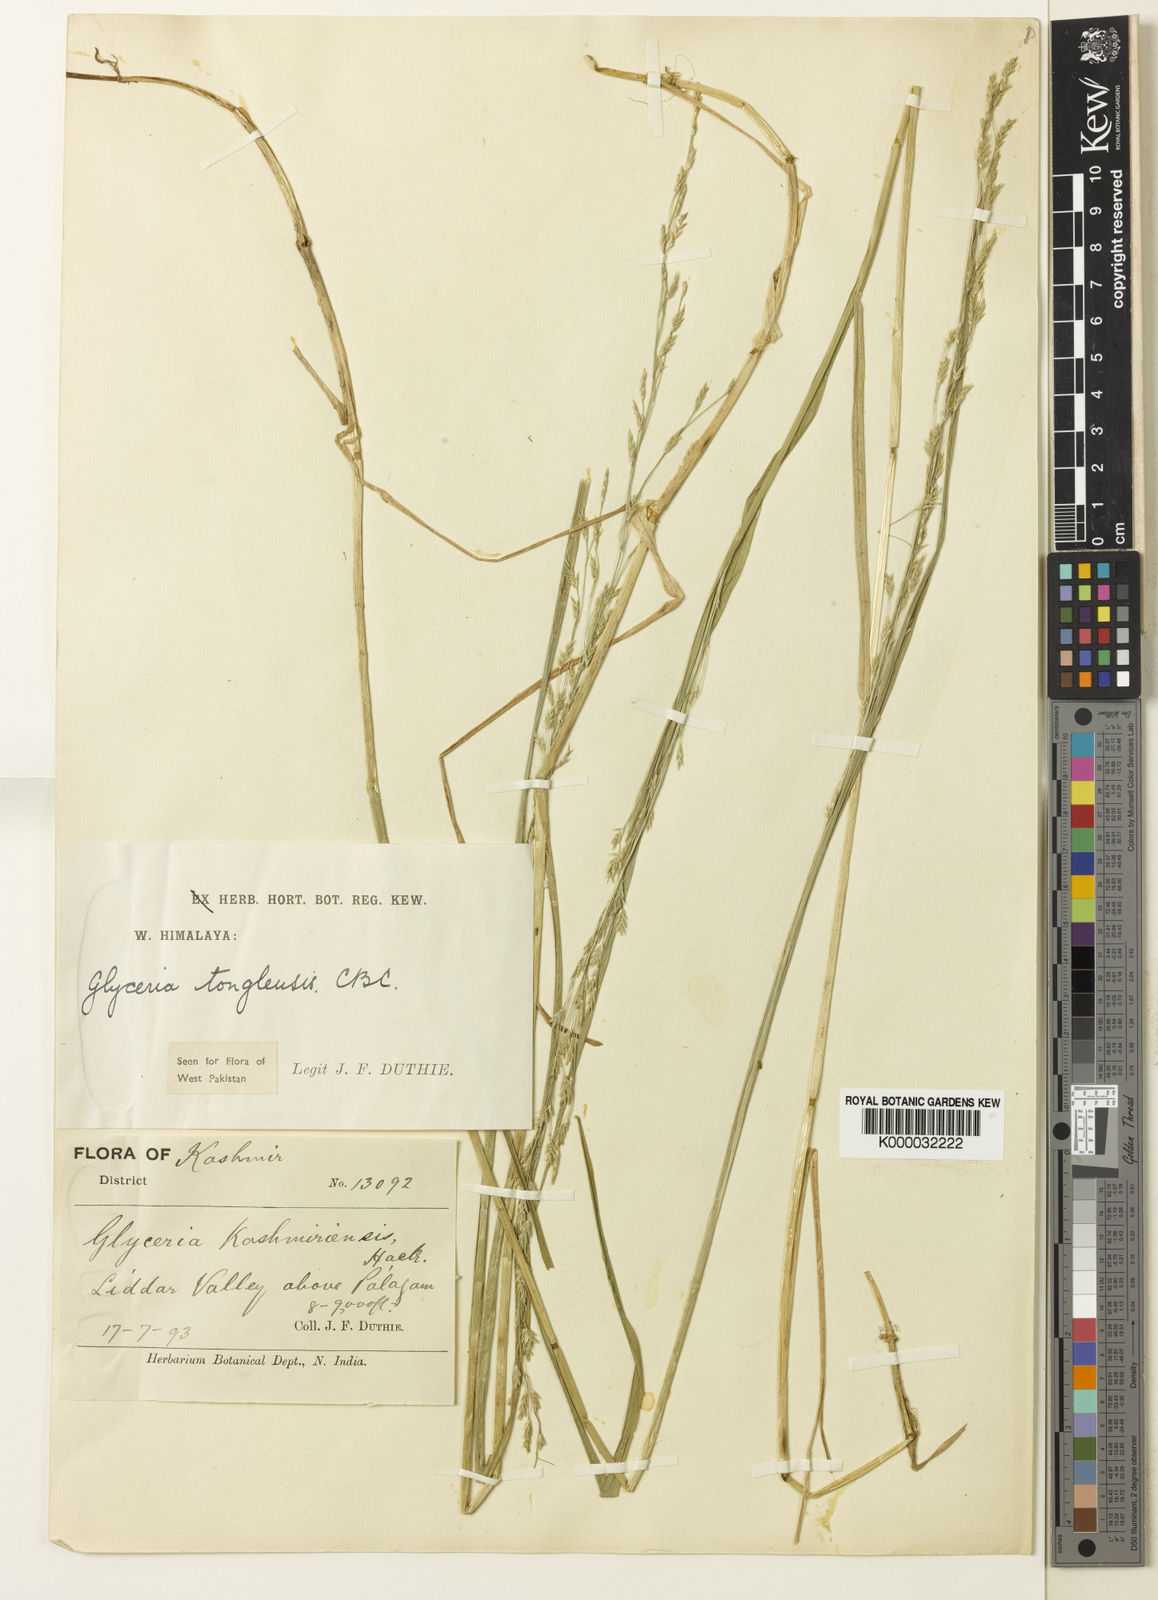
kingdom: Plantae
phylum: Tracheophyta
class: Liliopsida
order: Poales
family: Poaceae
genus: Glyceria
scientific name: Glyceria tonglensis
